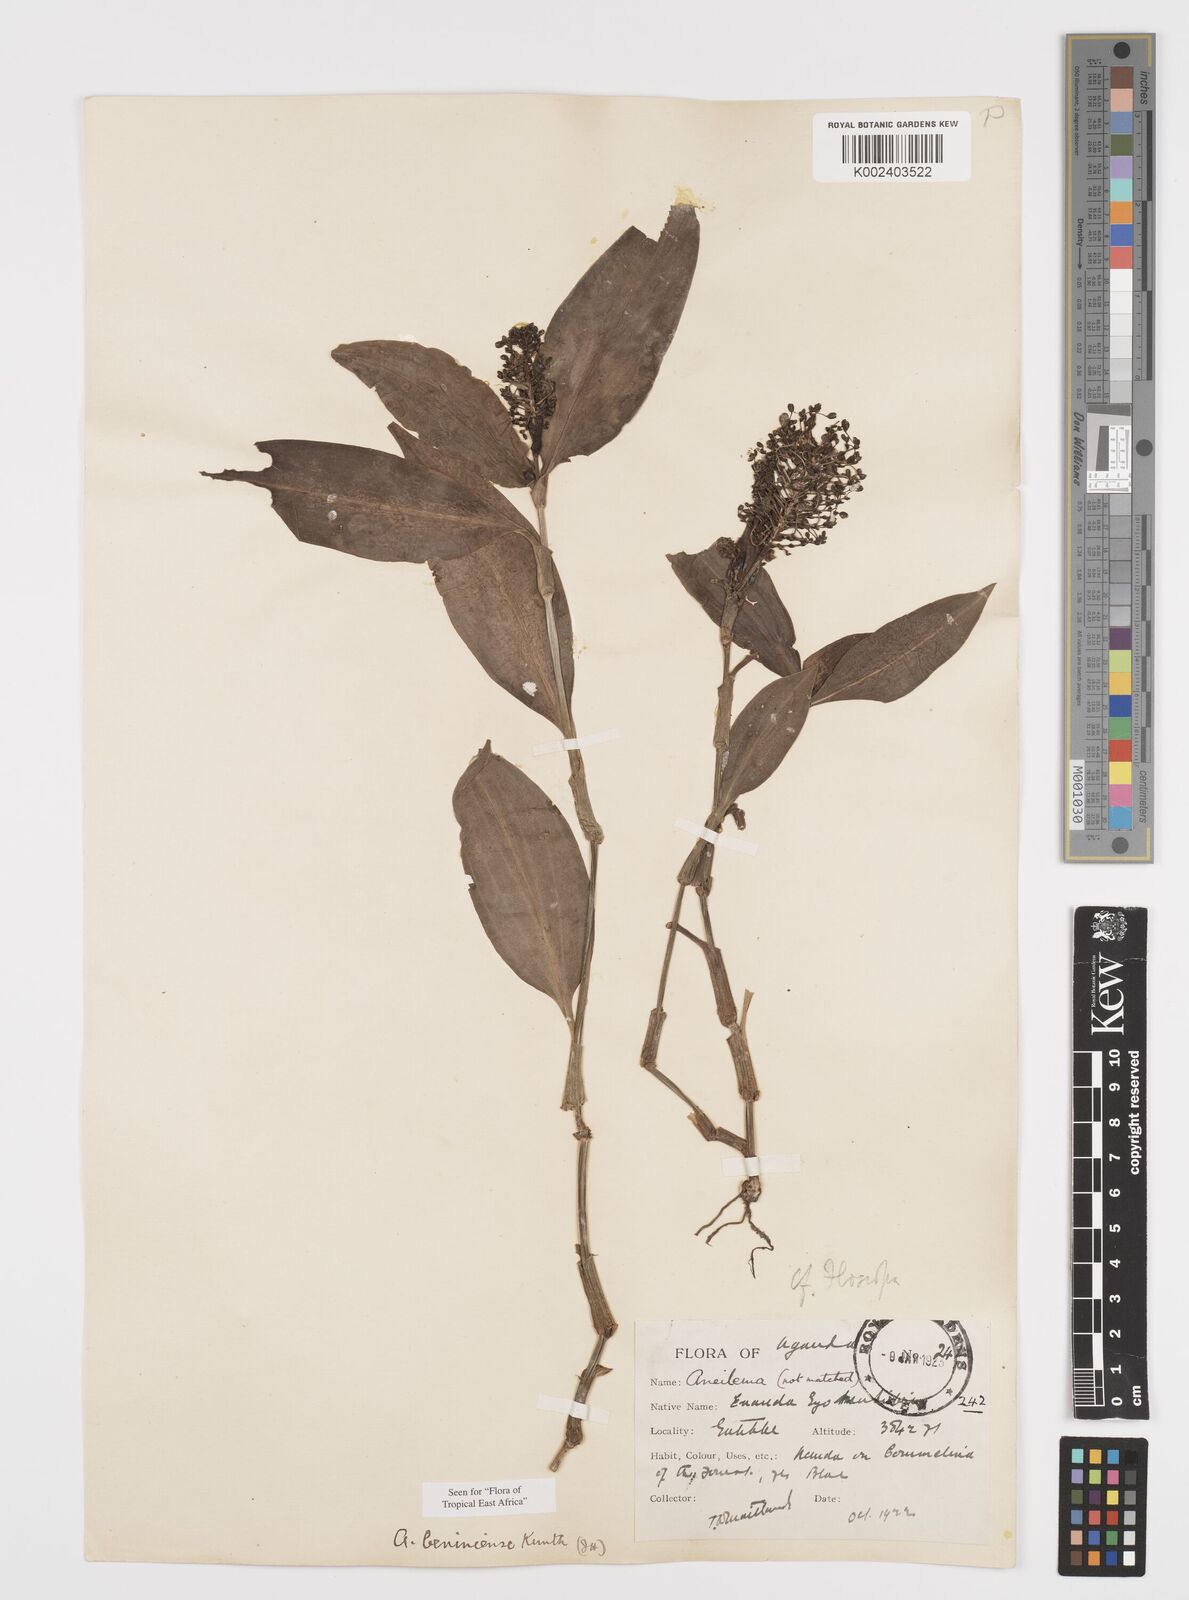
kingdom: Plantae
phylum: Tracheophyta
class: Liliopsida
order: Commelinales
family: Commelinaceae
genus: Aneilema
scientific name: Aneilema beniniense
